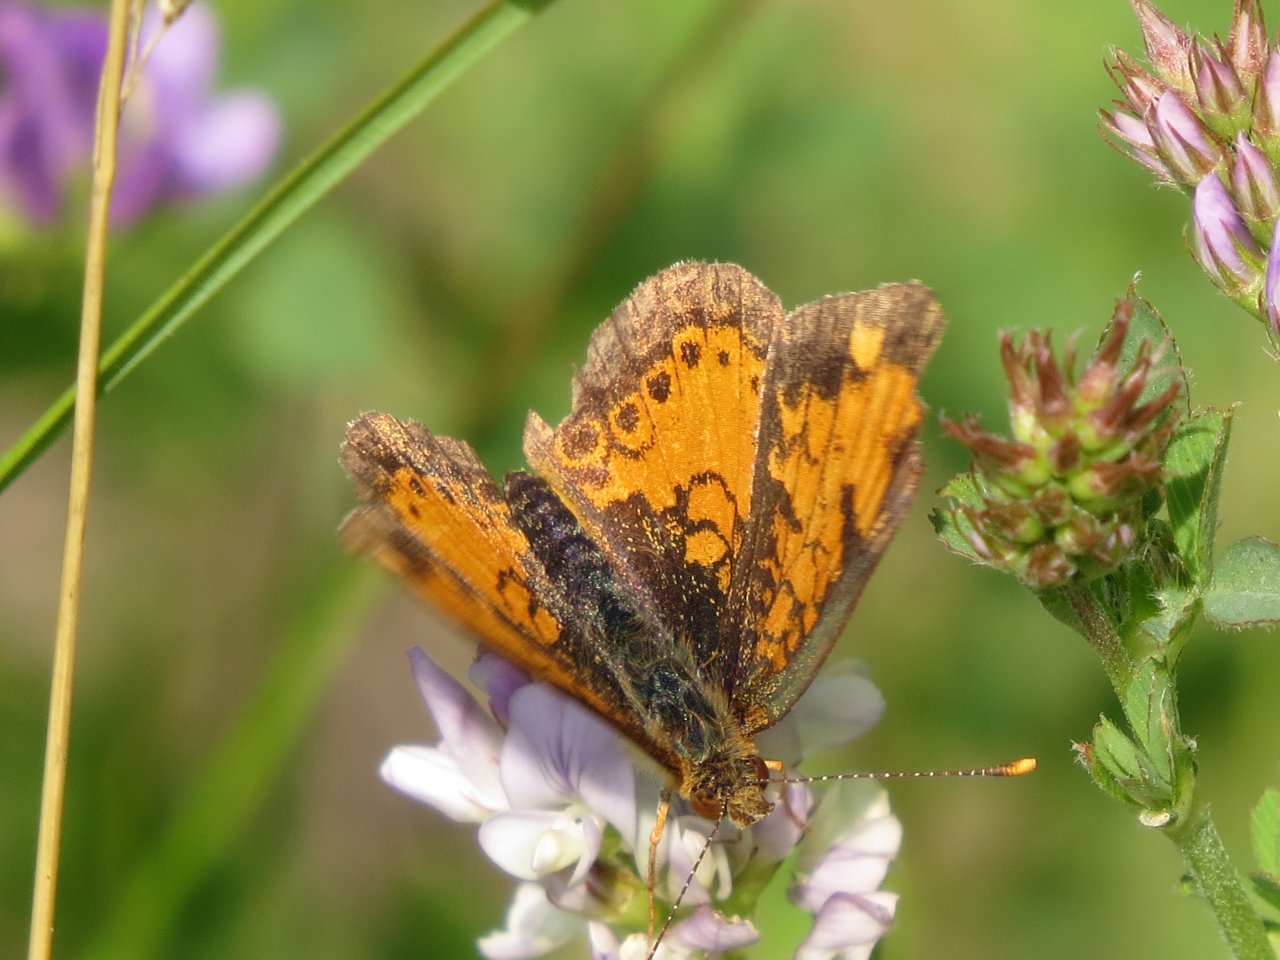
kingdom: Animalia
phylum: Arthropoda
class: Insecta
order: Lepidoptera
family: Nymphalidae
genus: Phyciodes
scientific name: Phyciodes tharos
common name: Northern Crescent
